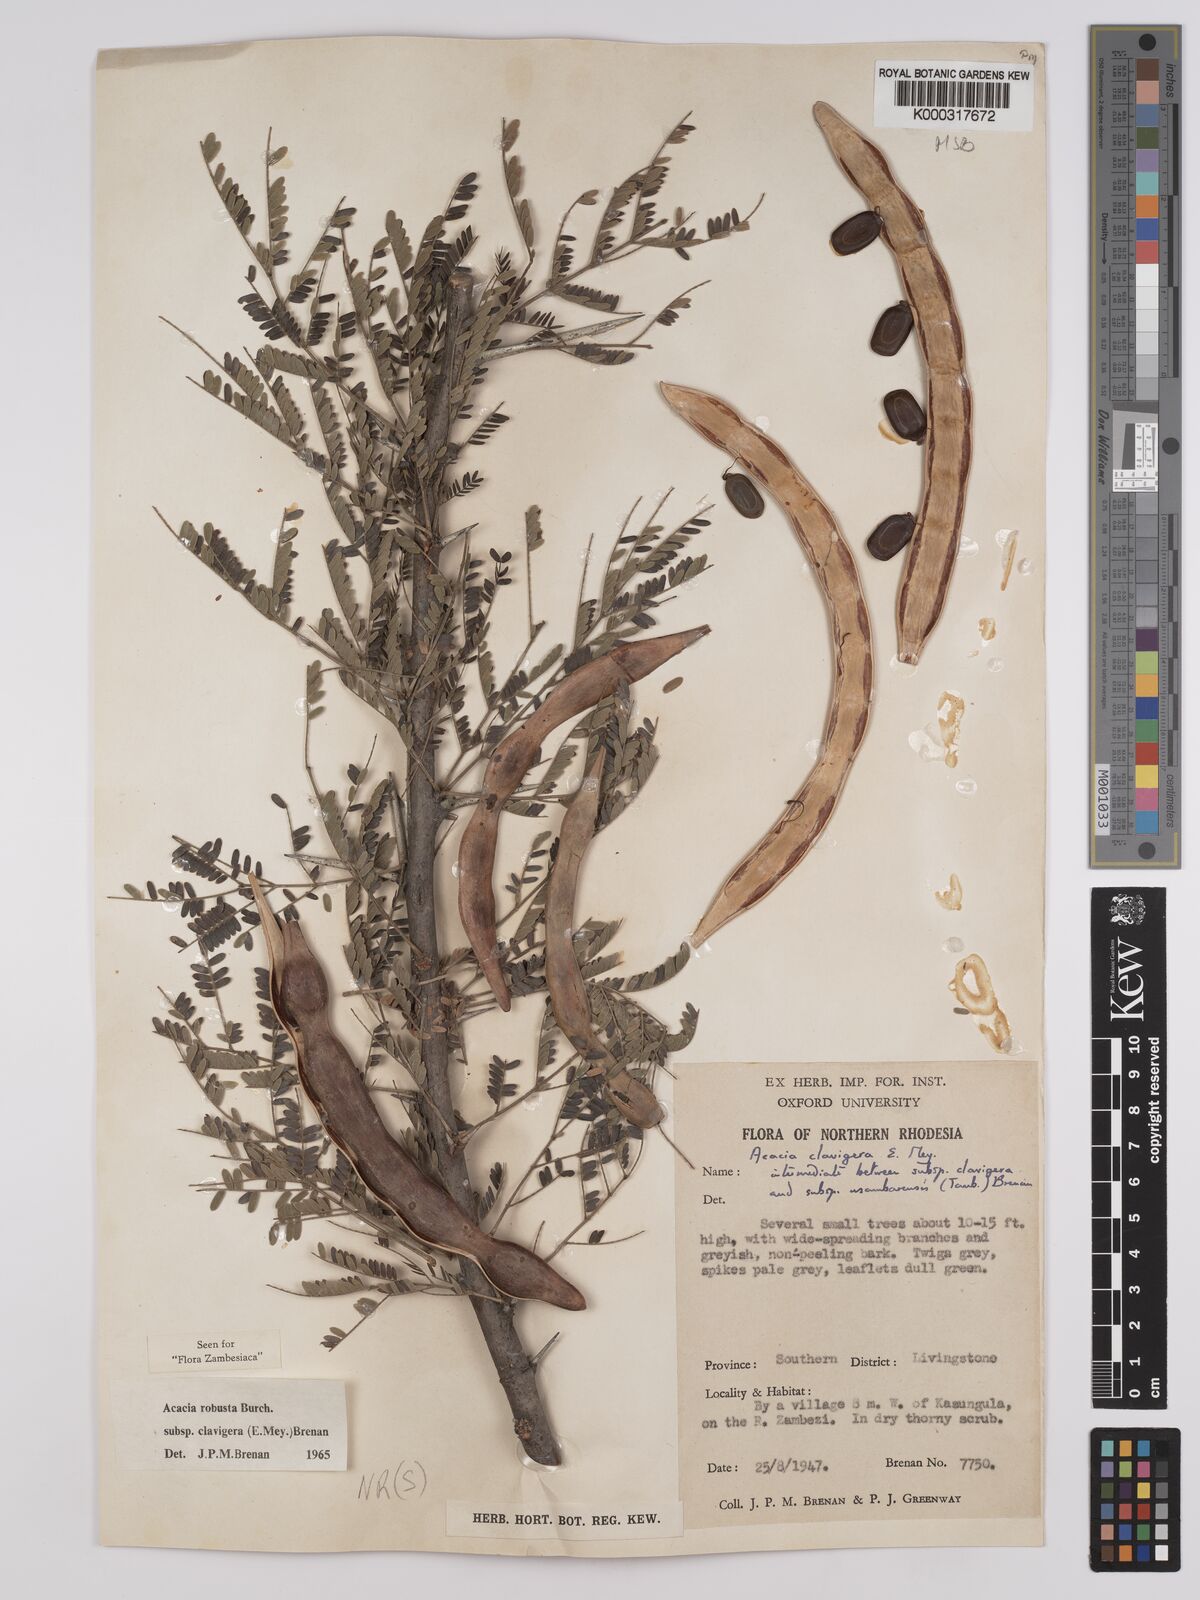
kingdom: Plantae
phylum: Tracheophyta
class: Magnoliopsida
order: Fabales
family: Fabaceae
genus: Vachellia
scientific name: Vachellia robusta
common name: Ankle thorn
